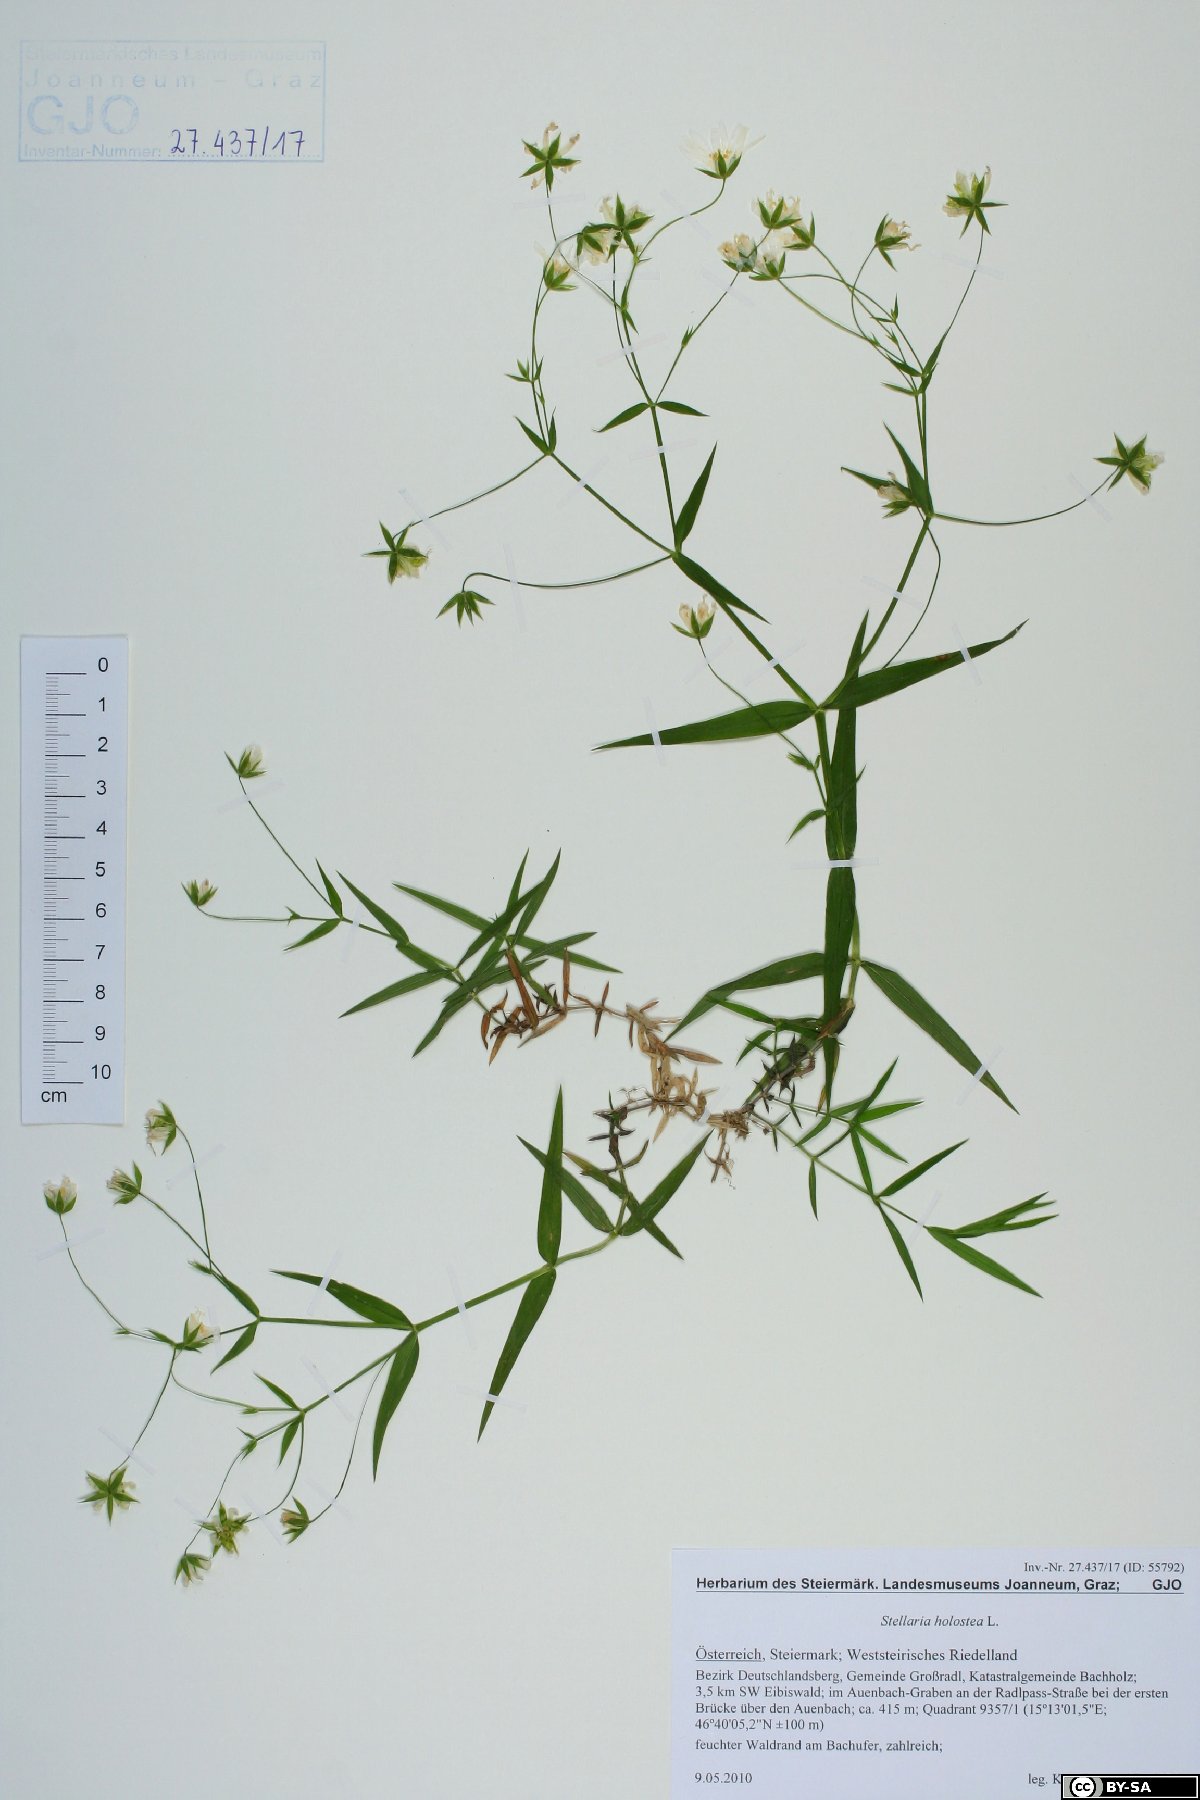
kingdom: Plantae
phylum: Tracheophyta
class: Magnoliopsida
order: Caryophyllales
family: Caryophyllaceae
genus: Rabelera
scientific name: Rabelera holostea
